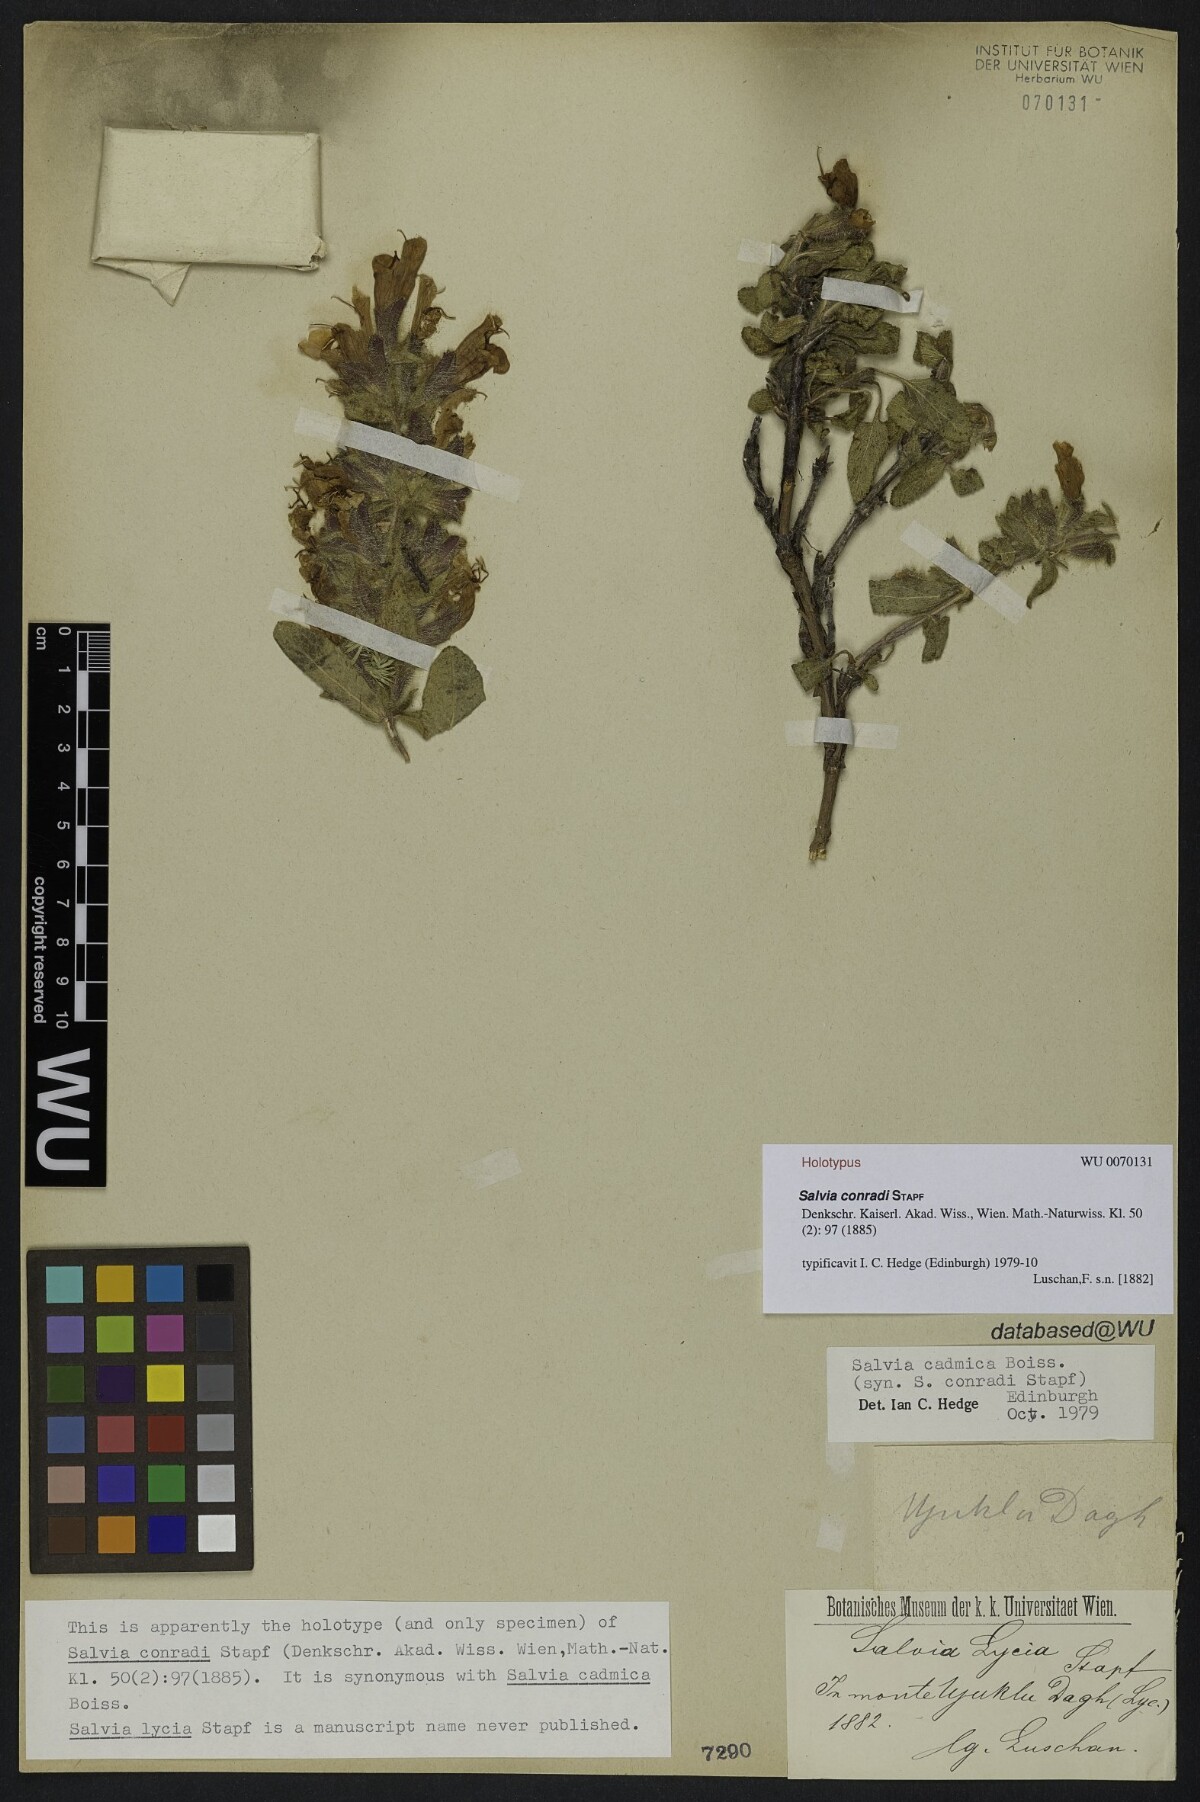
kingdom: Plantae
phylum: Tracheophyta
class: Magnoliopsida
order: Lamiales
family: Lamiaceae
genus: Salvia
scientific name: Salvia cadmica
